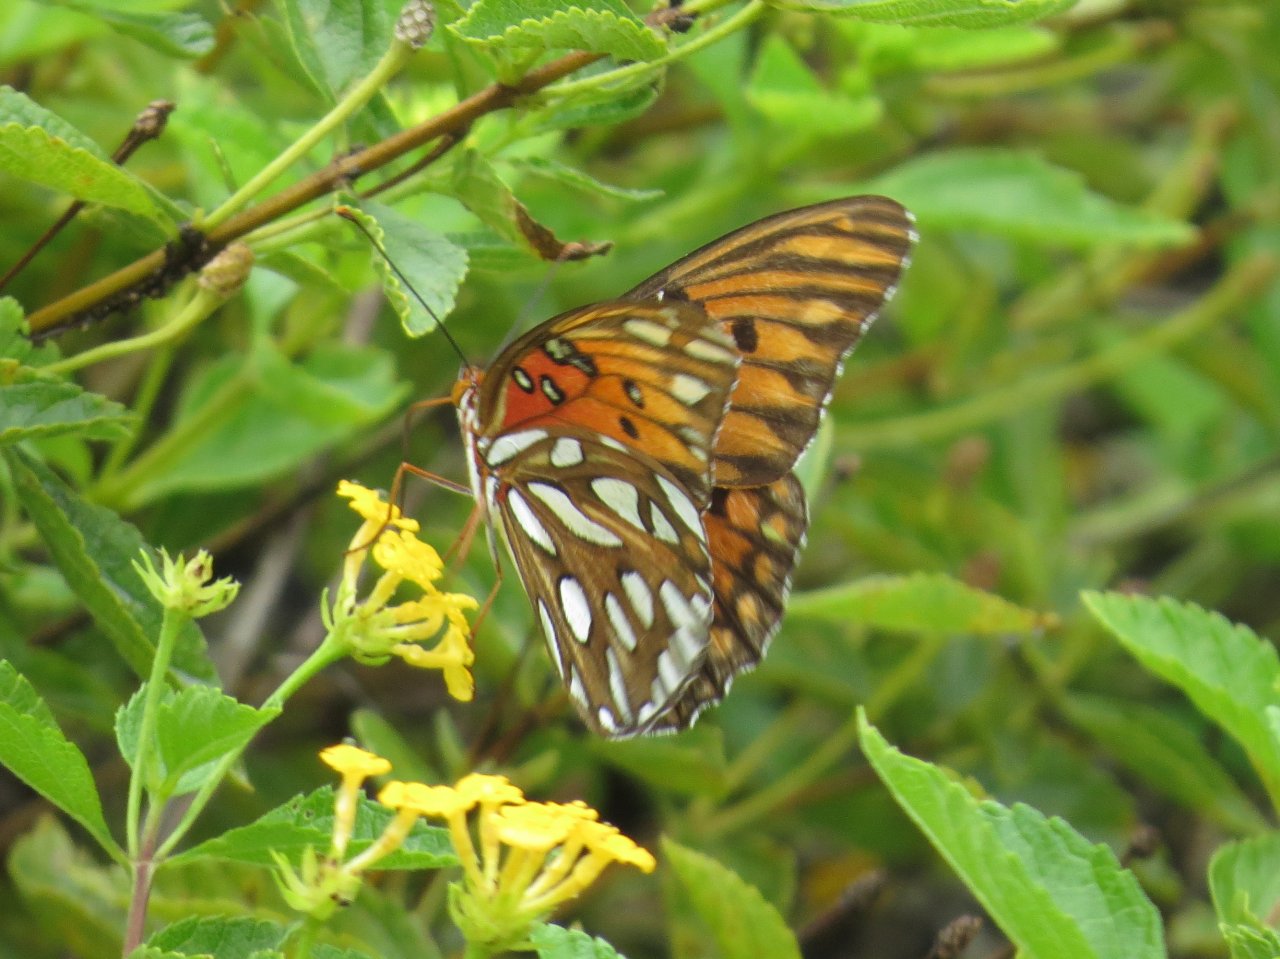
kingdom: Animalia
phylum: Arthropoda
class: Insecta
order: Lepidoptera
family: Nymphalidae
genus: Dione
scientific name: Dione vanillae
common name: Gulf Fritillary
